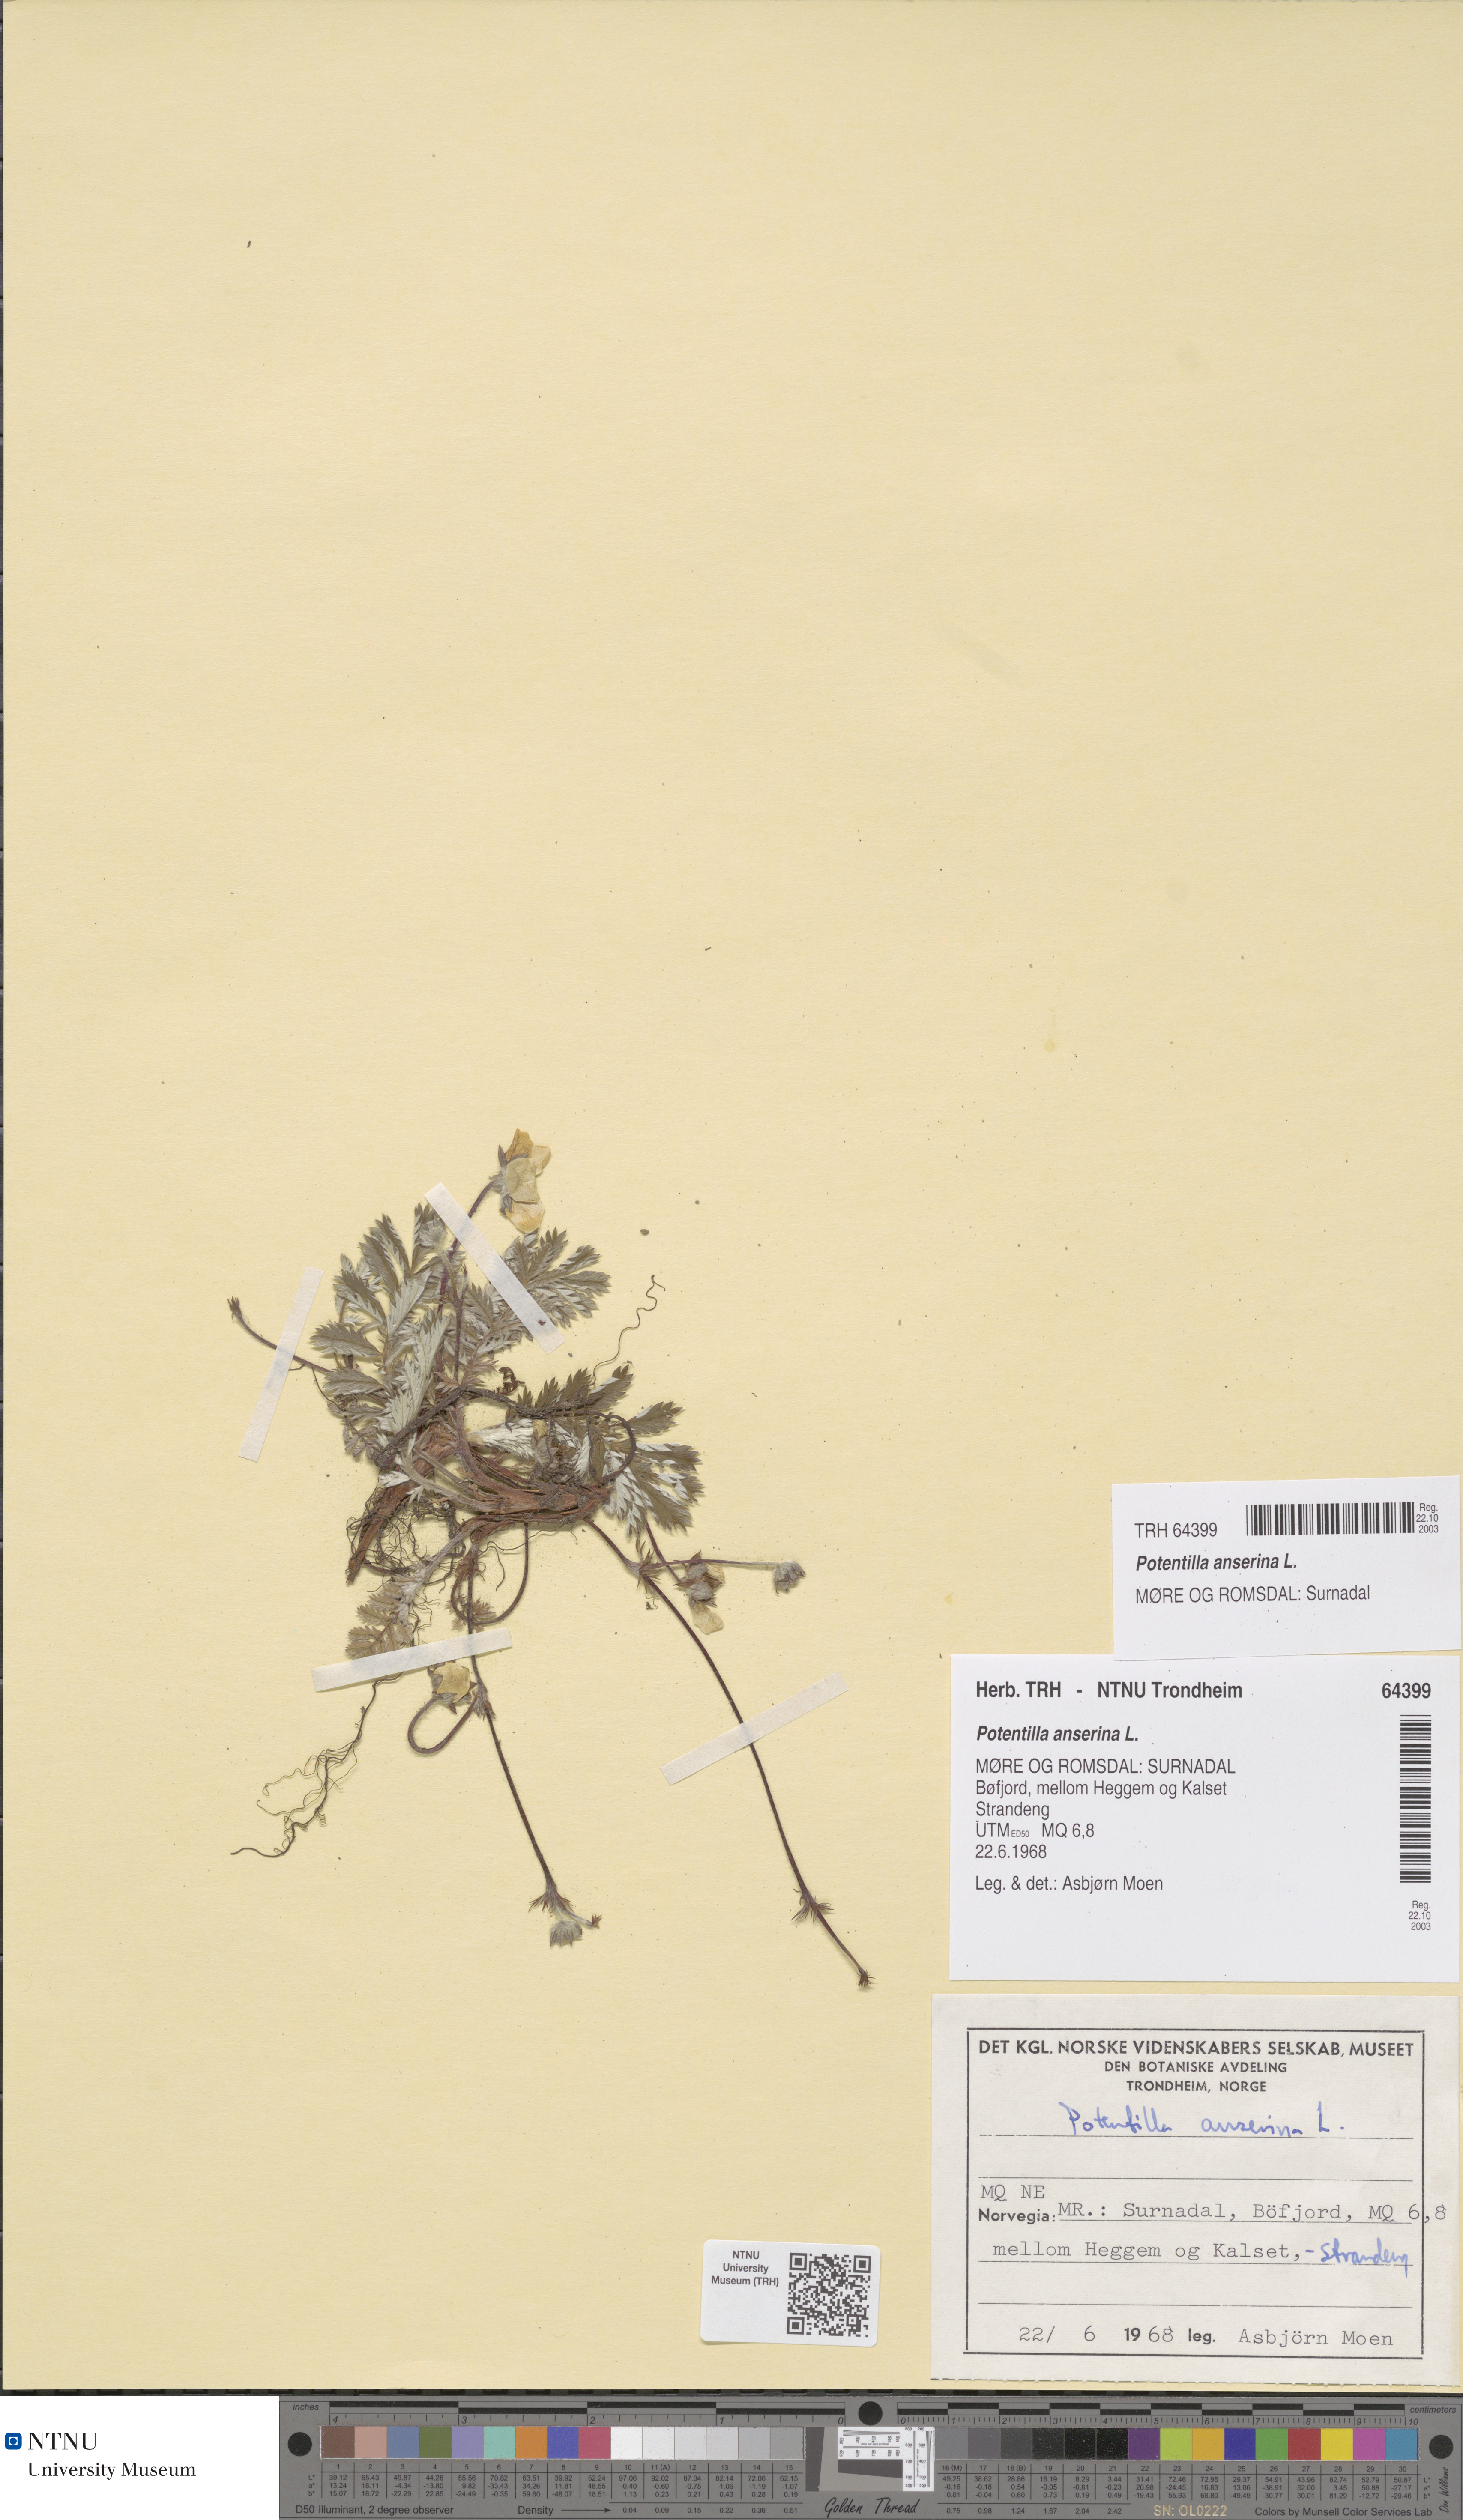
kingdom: Plantae
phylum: Tracheophyta
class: Magnoliopsida
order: Rosales
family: Rosaceae
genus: Argentina
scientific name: Argentina anserina
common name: Common silverweed
